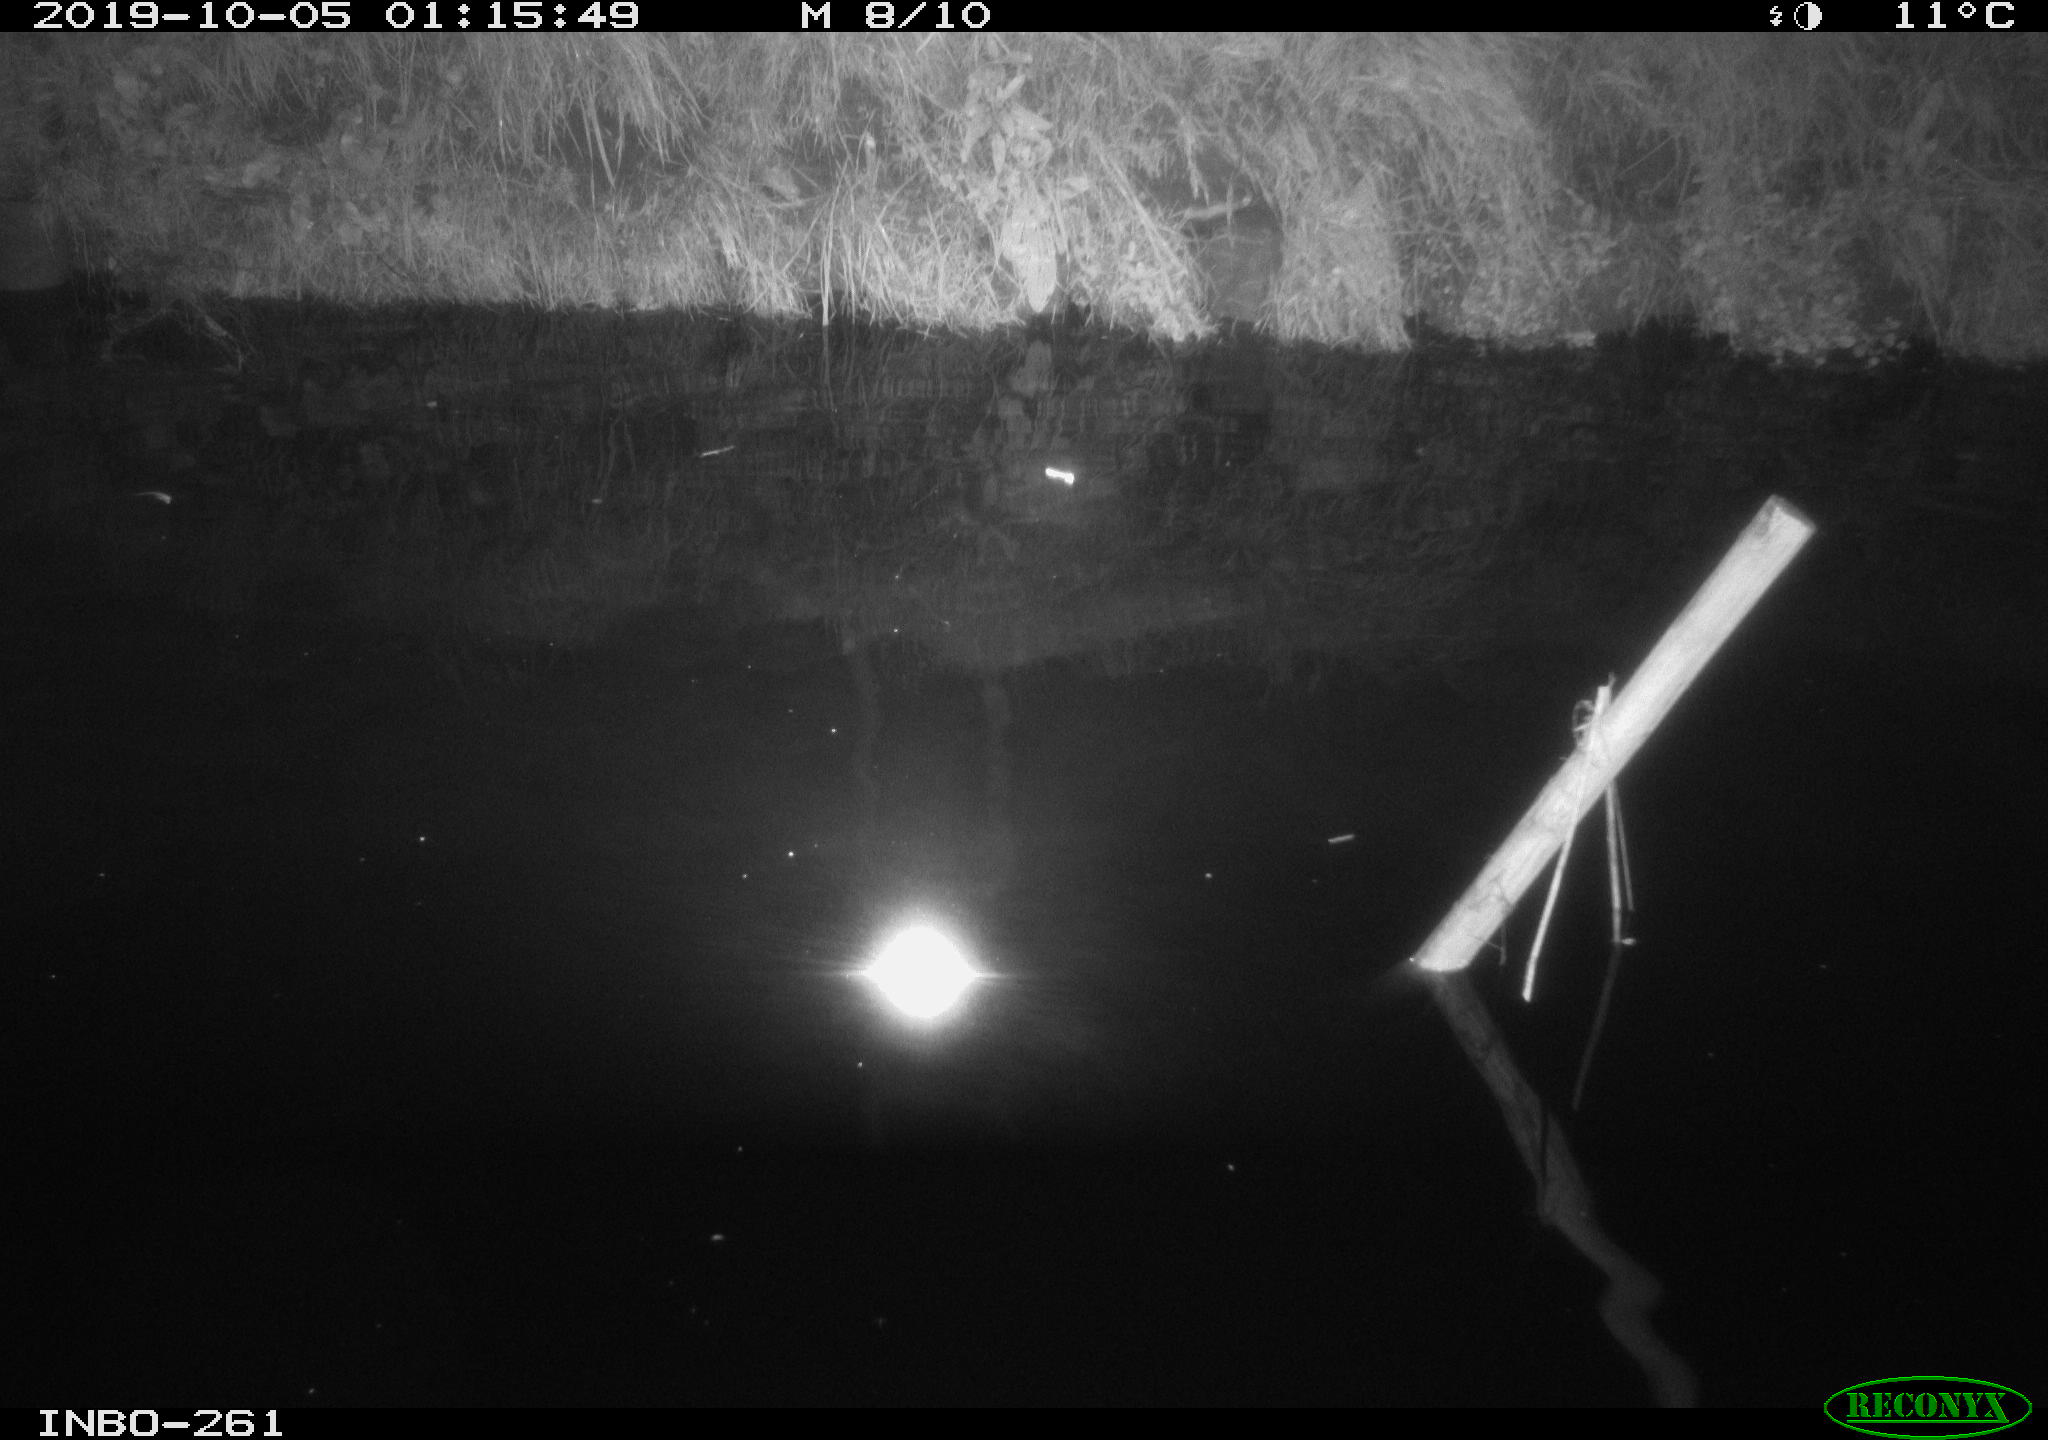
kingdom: Animalia
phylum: Chordata
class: Aves
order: Anseriformes
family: Anatidae
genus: Anas
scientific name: Anas platyrhynchos
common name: Mallard
